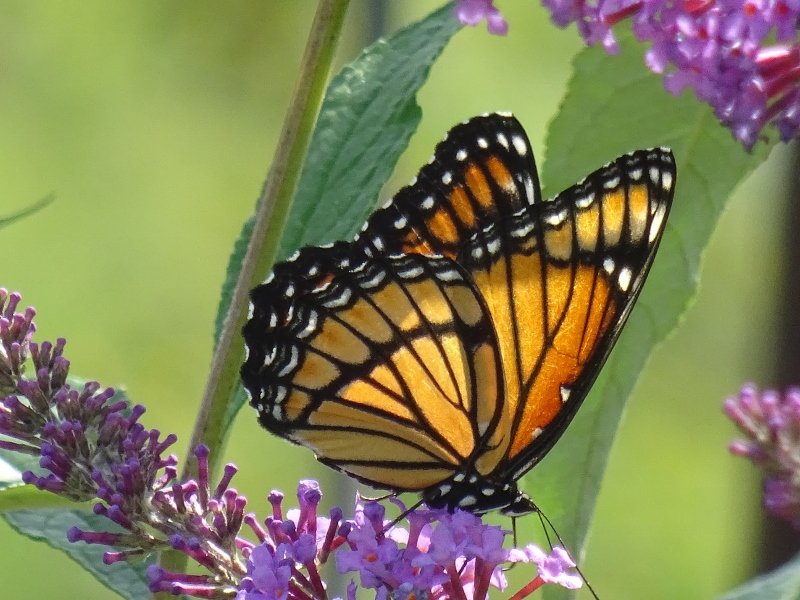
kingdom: Animalia
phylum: Arthropoda
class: Insecta
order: Lepidoptera
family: Nymphalidae
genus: Limenitis
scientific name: Limenitis archippus
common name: Viceroy
